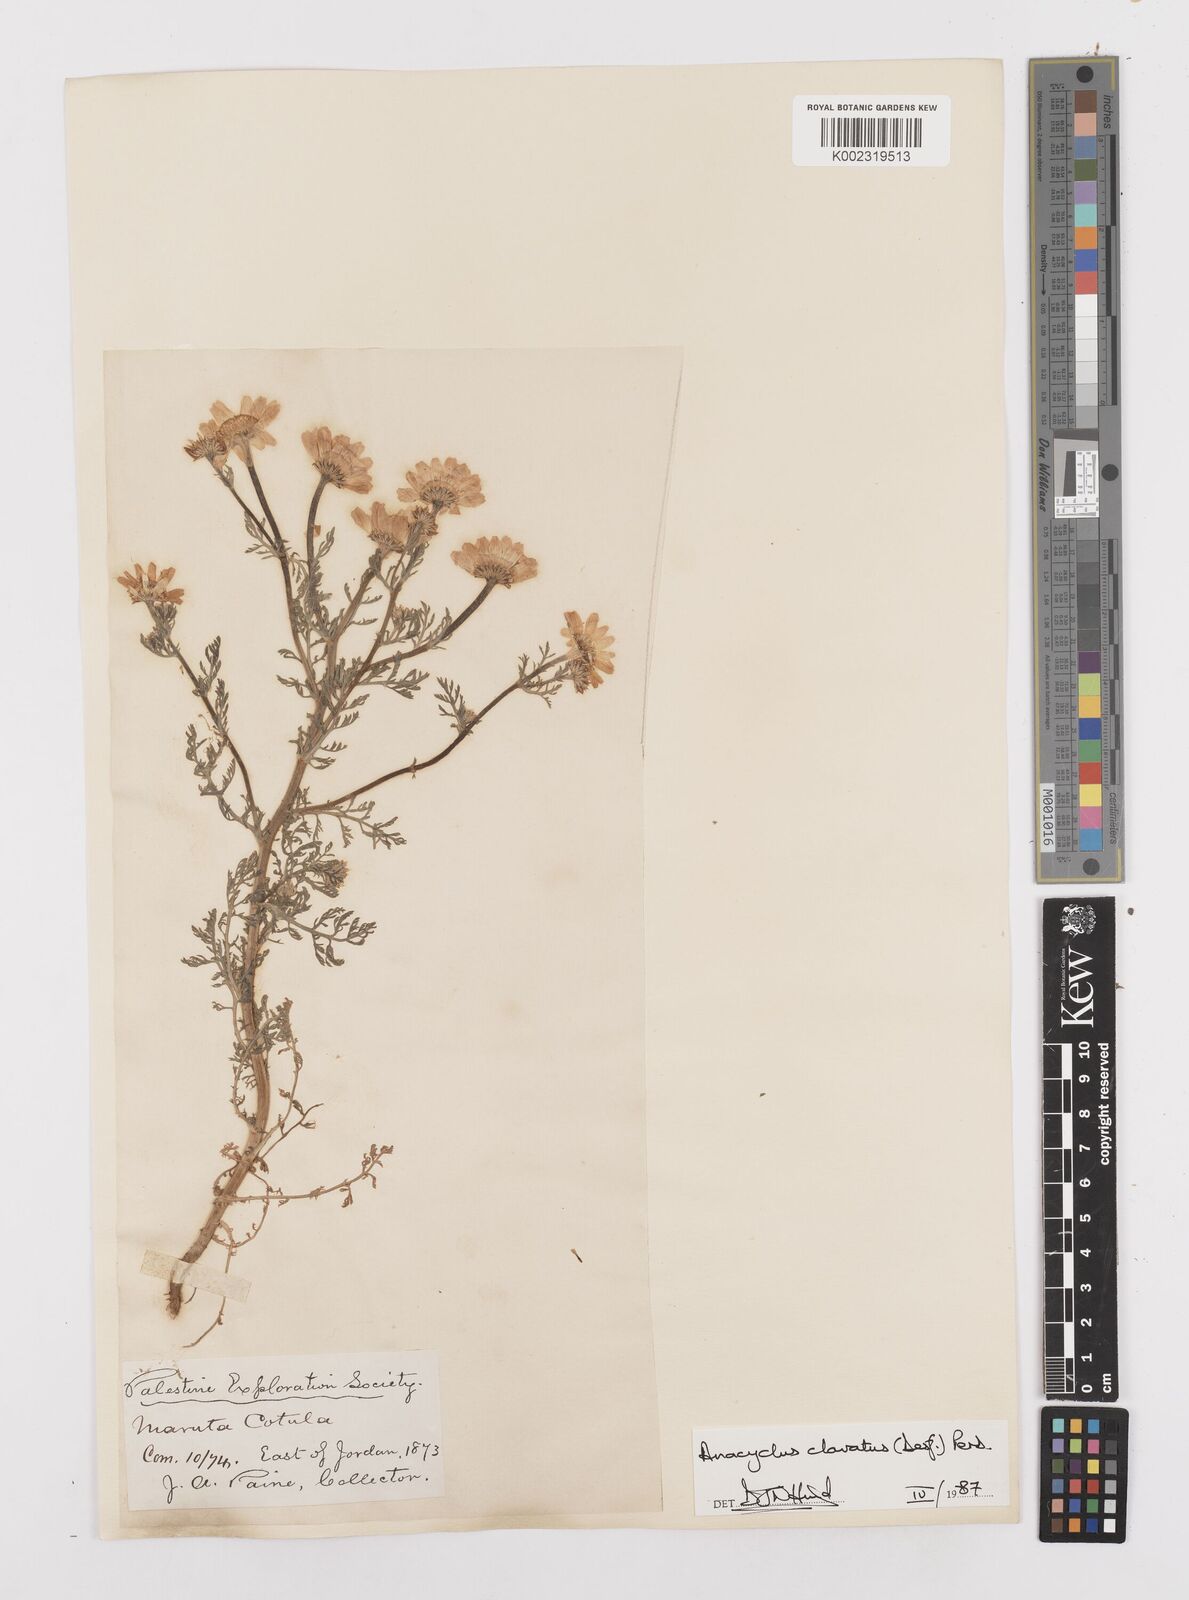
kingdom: Plantae
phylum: Tracheophyta
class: Magnoliopsida
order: Asterales
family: Asteraceae
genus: Anacyclus
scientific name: Anacyclus clavatus
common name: Whitebuttons
